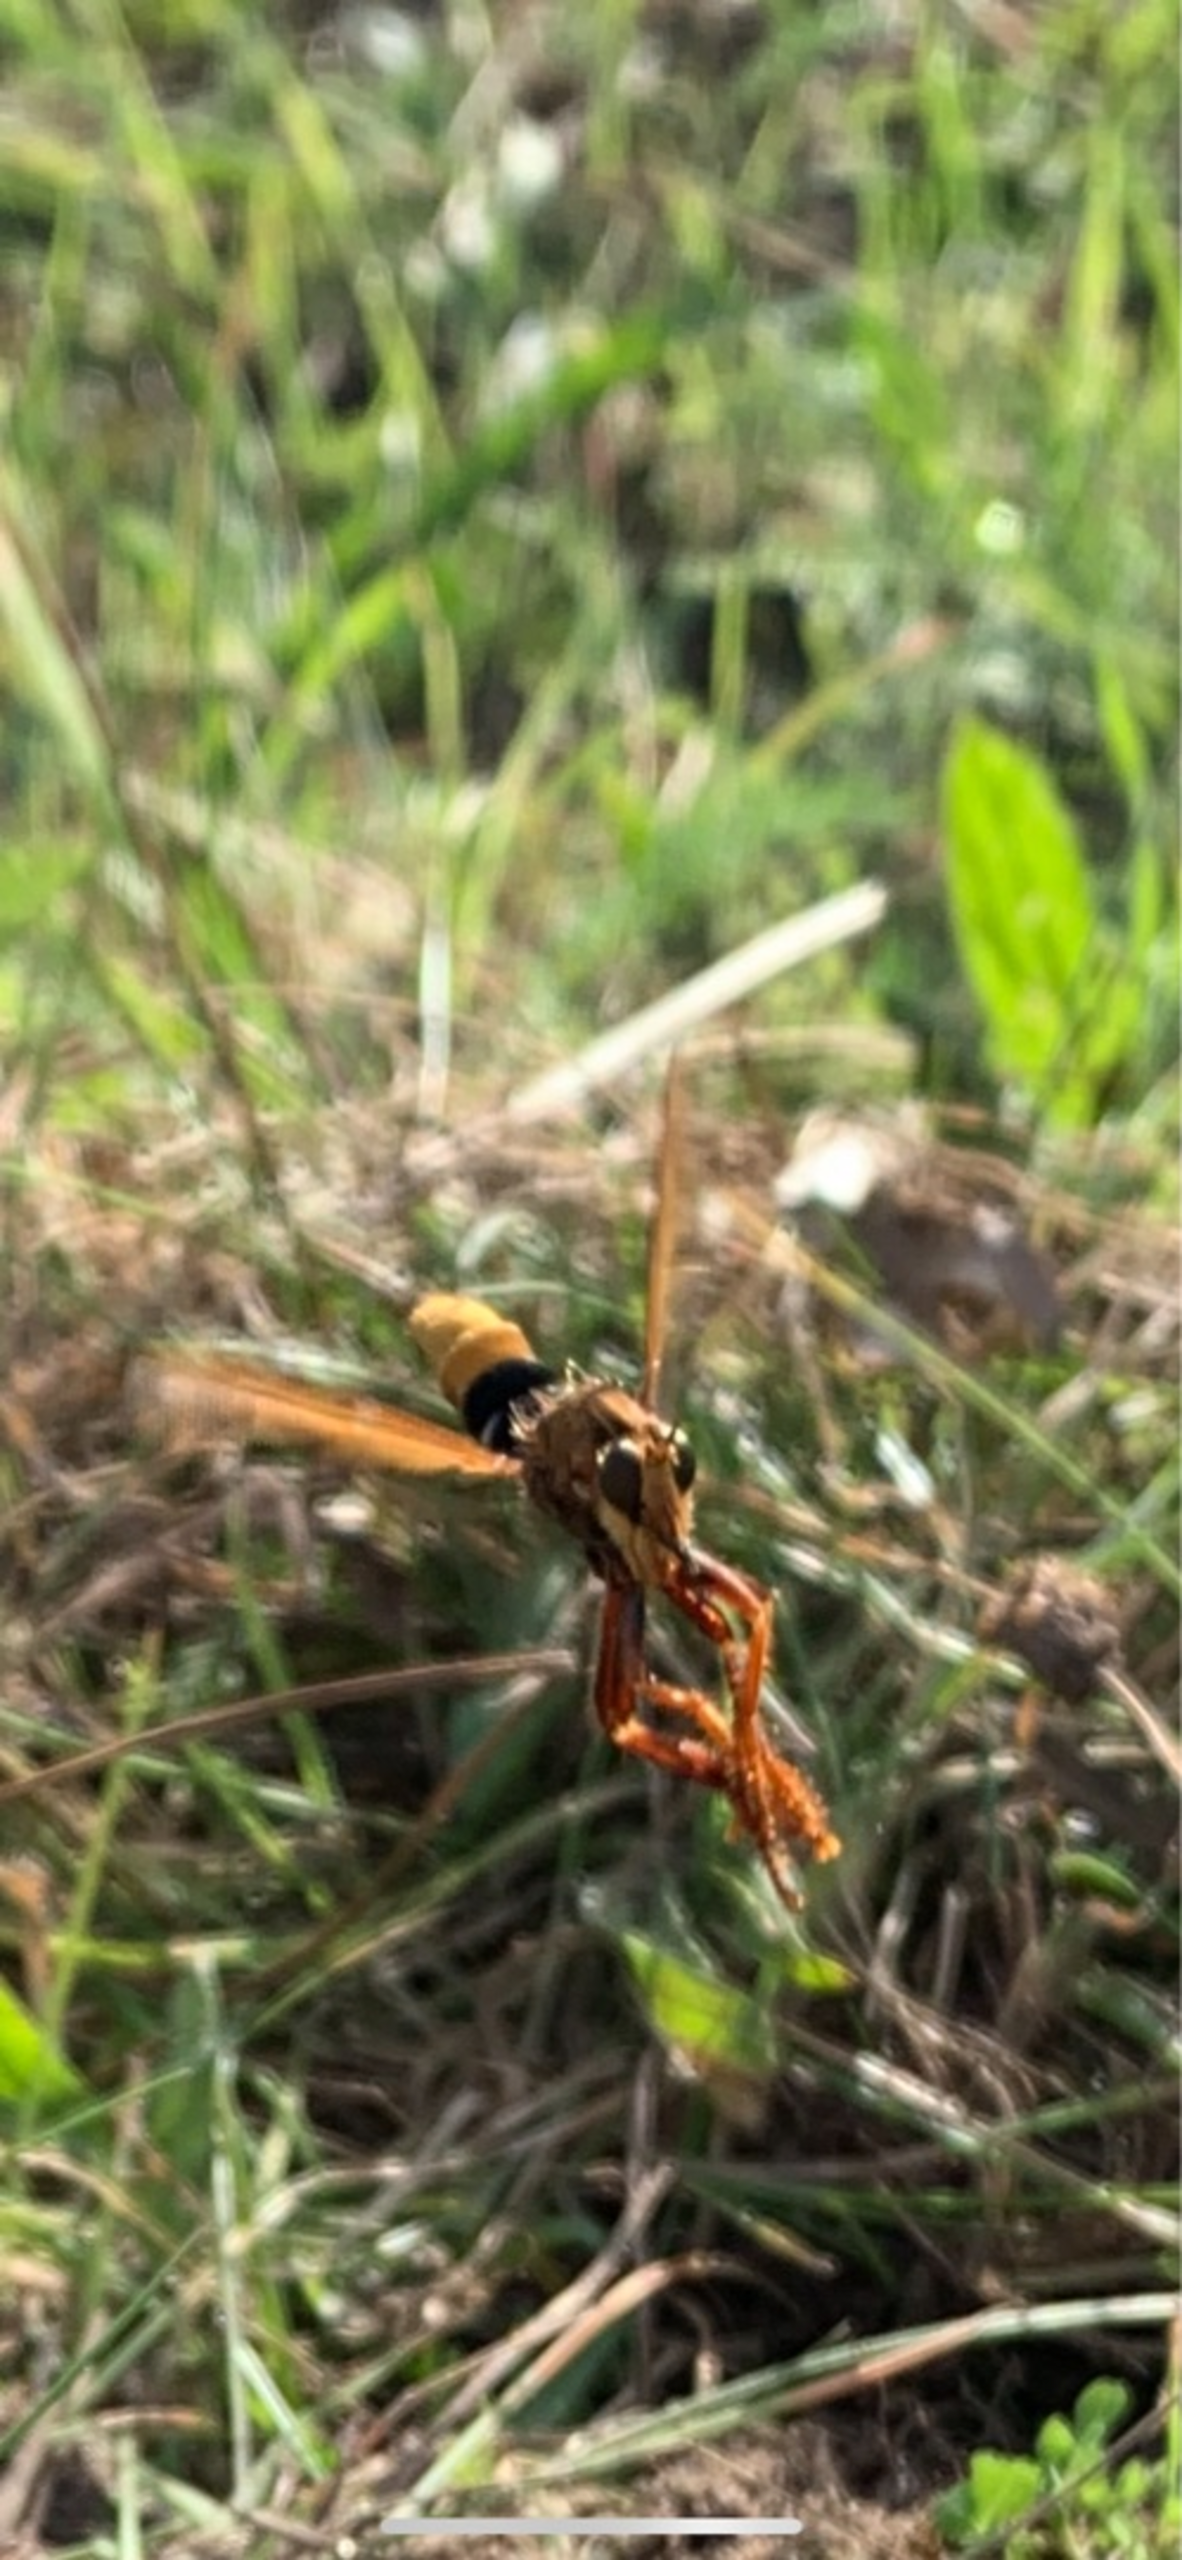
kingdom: Animalia
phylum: Arthropoda
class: Insecta
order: Diptera
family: Asilidae
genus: Asilus
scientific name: Asilus crabroniformis
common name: Stor gødningsrovflue
